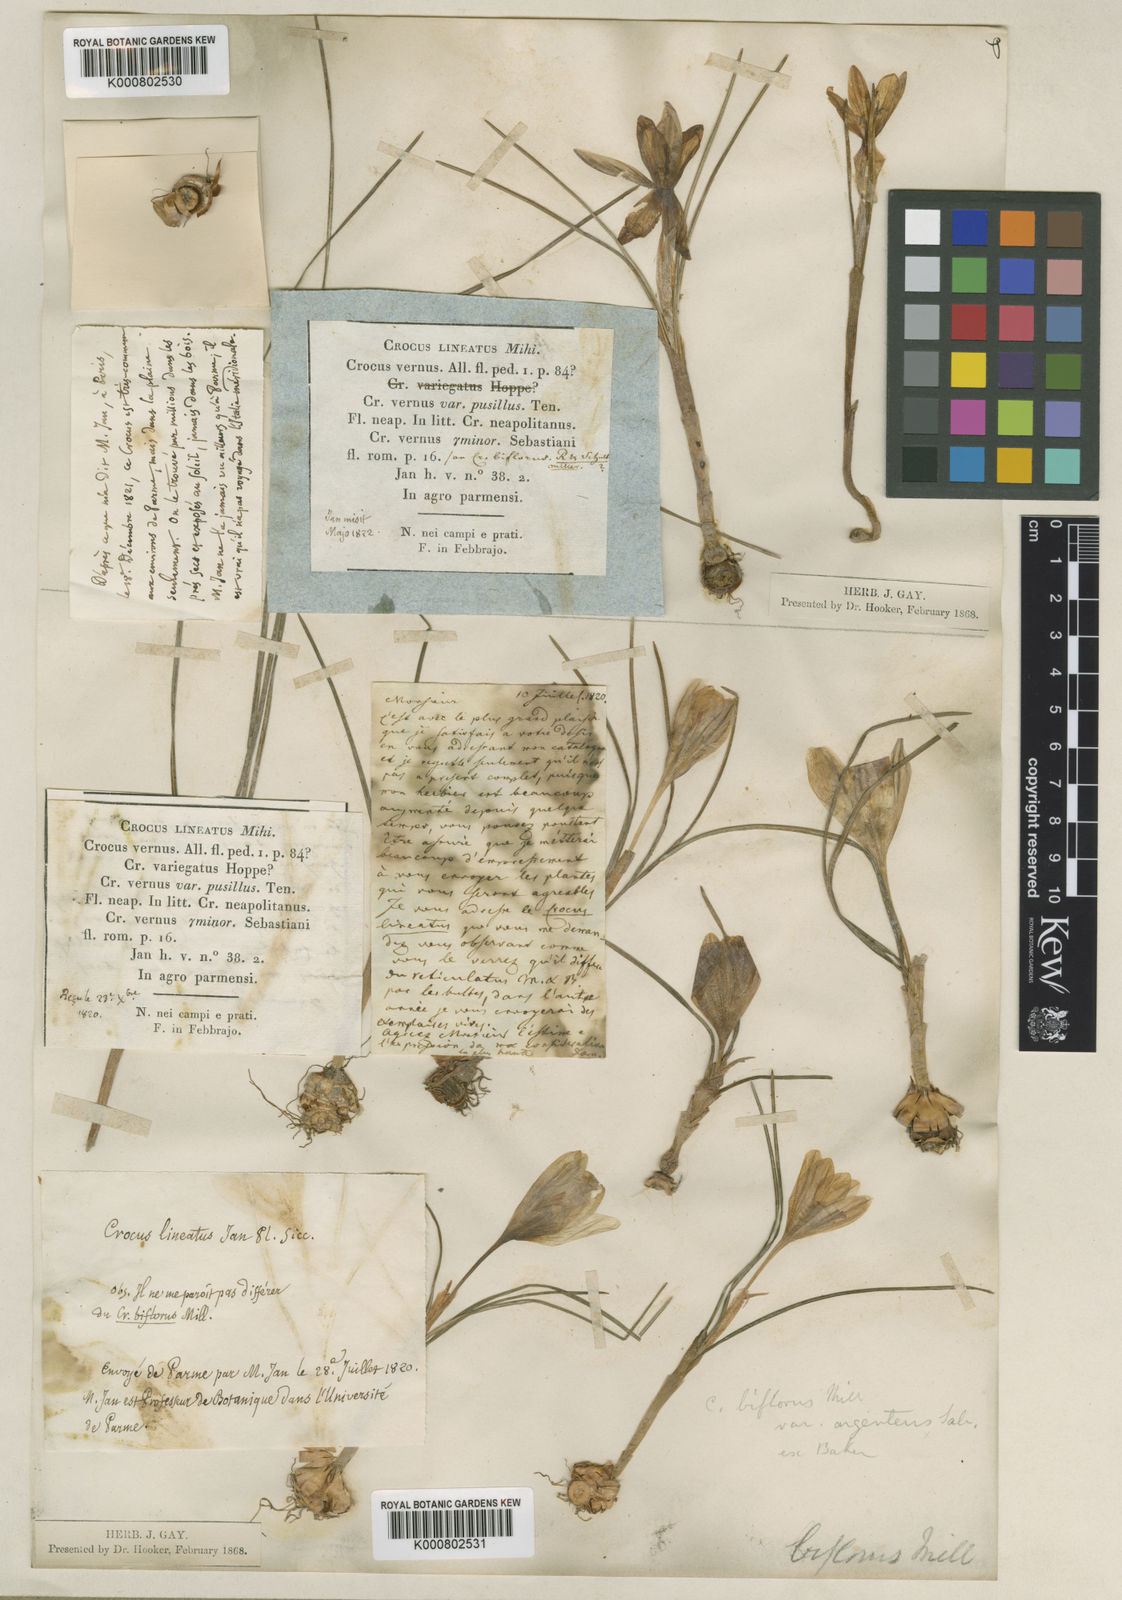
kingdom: Plantae
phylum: Tracheophyta
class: Liliopsida
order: Asparagales
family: Iridaceae
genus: Crocus
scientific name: Crocus biflorus
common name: Silvery crocus
